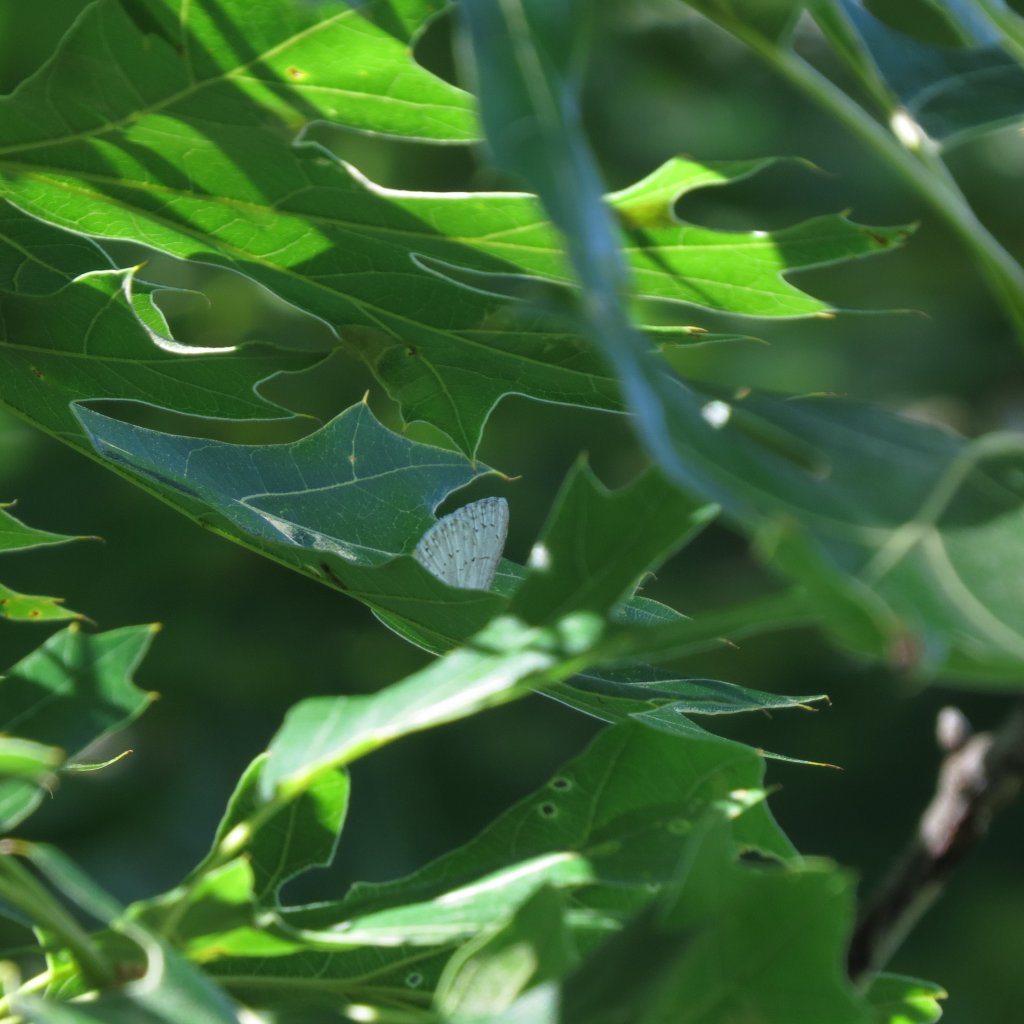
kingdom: Animalia
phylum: Arthropoda
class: Insecta
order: Lepidoptera
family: Lycaenidae
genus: Cyaniris
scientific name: Cyaniris neglecta
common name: Summer Azure
